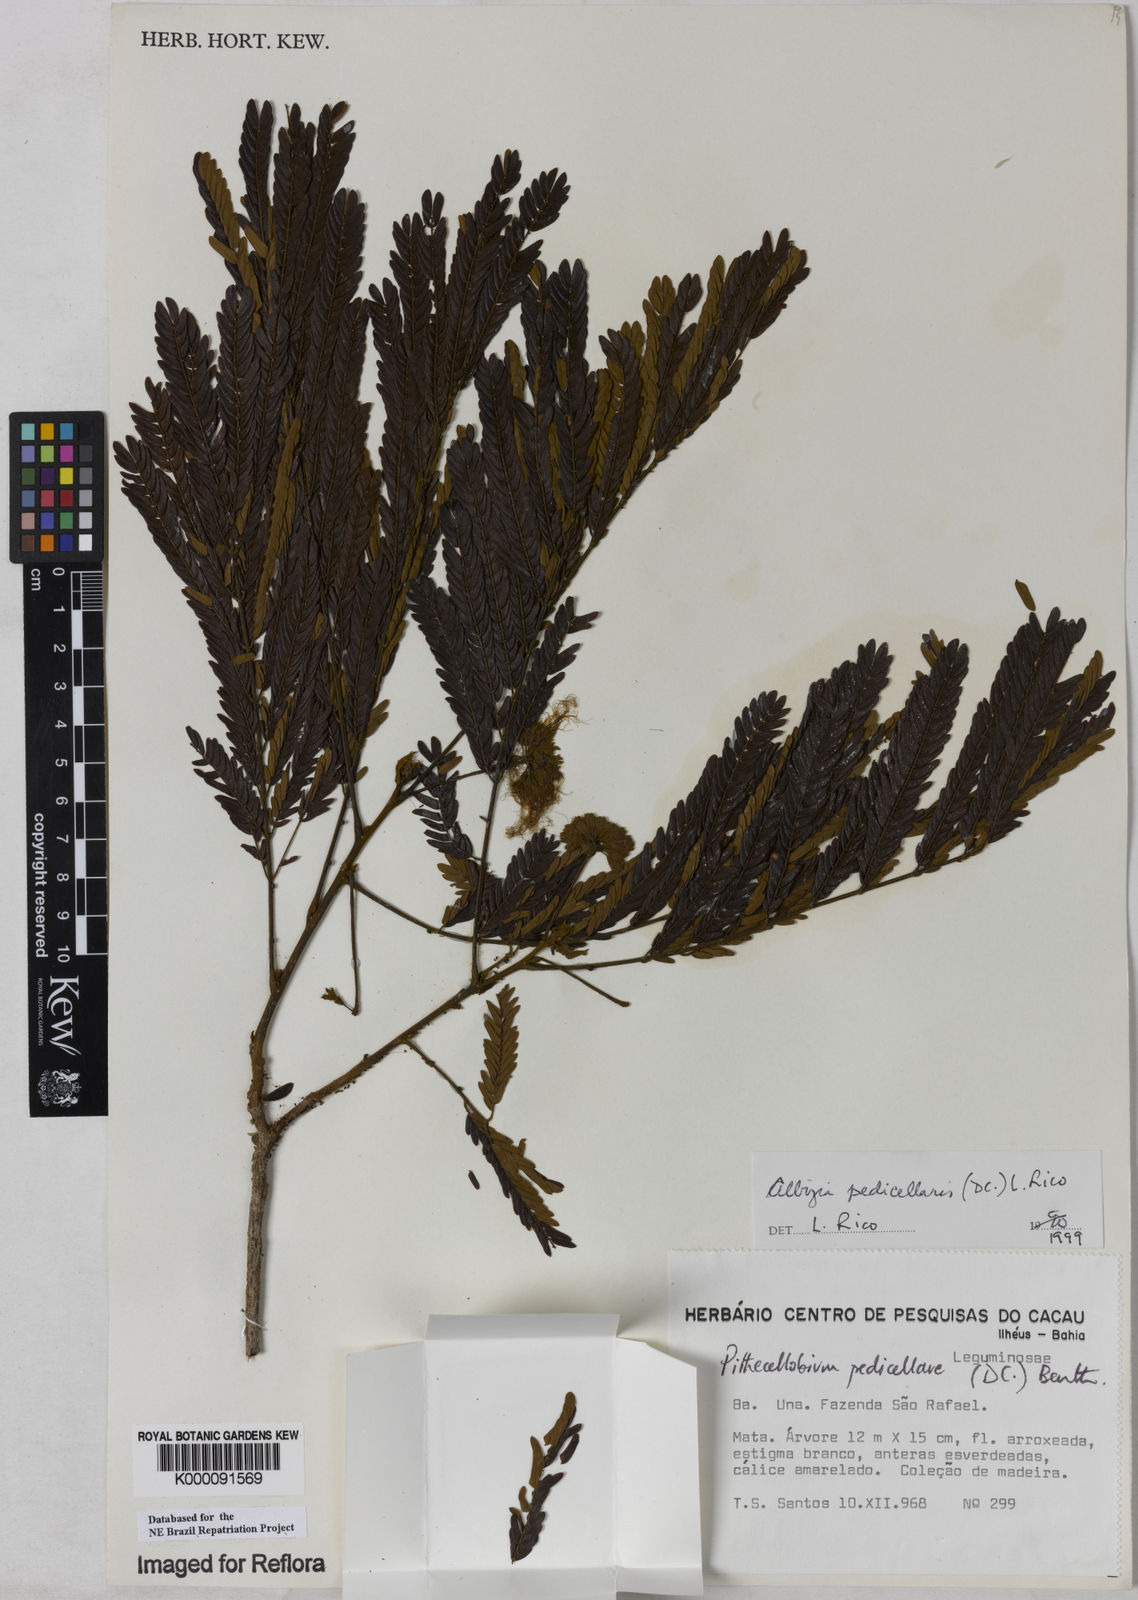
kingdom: Plantae
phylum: Tracheophyta
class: Magnoliopsida
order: Fabales
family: Fabaceae
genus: Balizia
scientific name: Balizia pedicellaris
